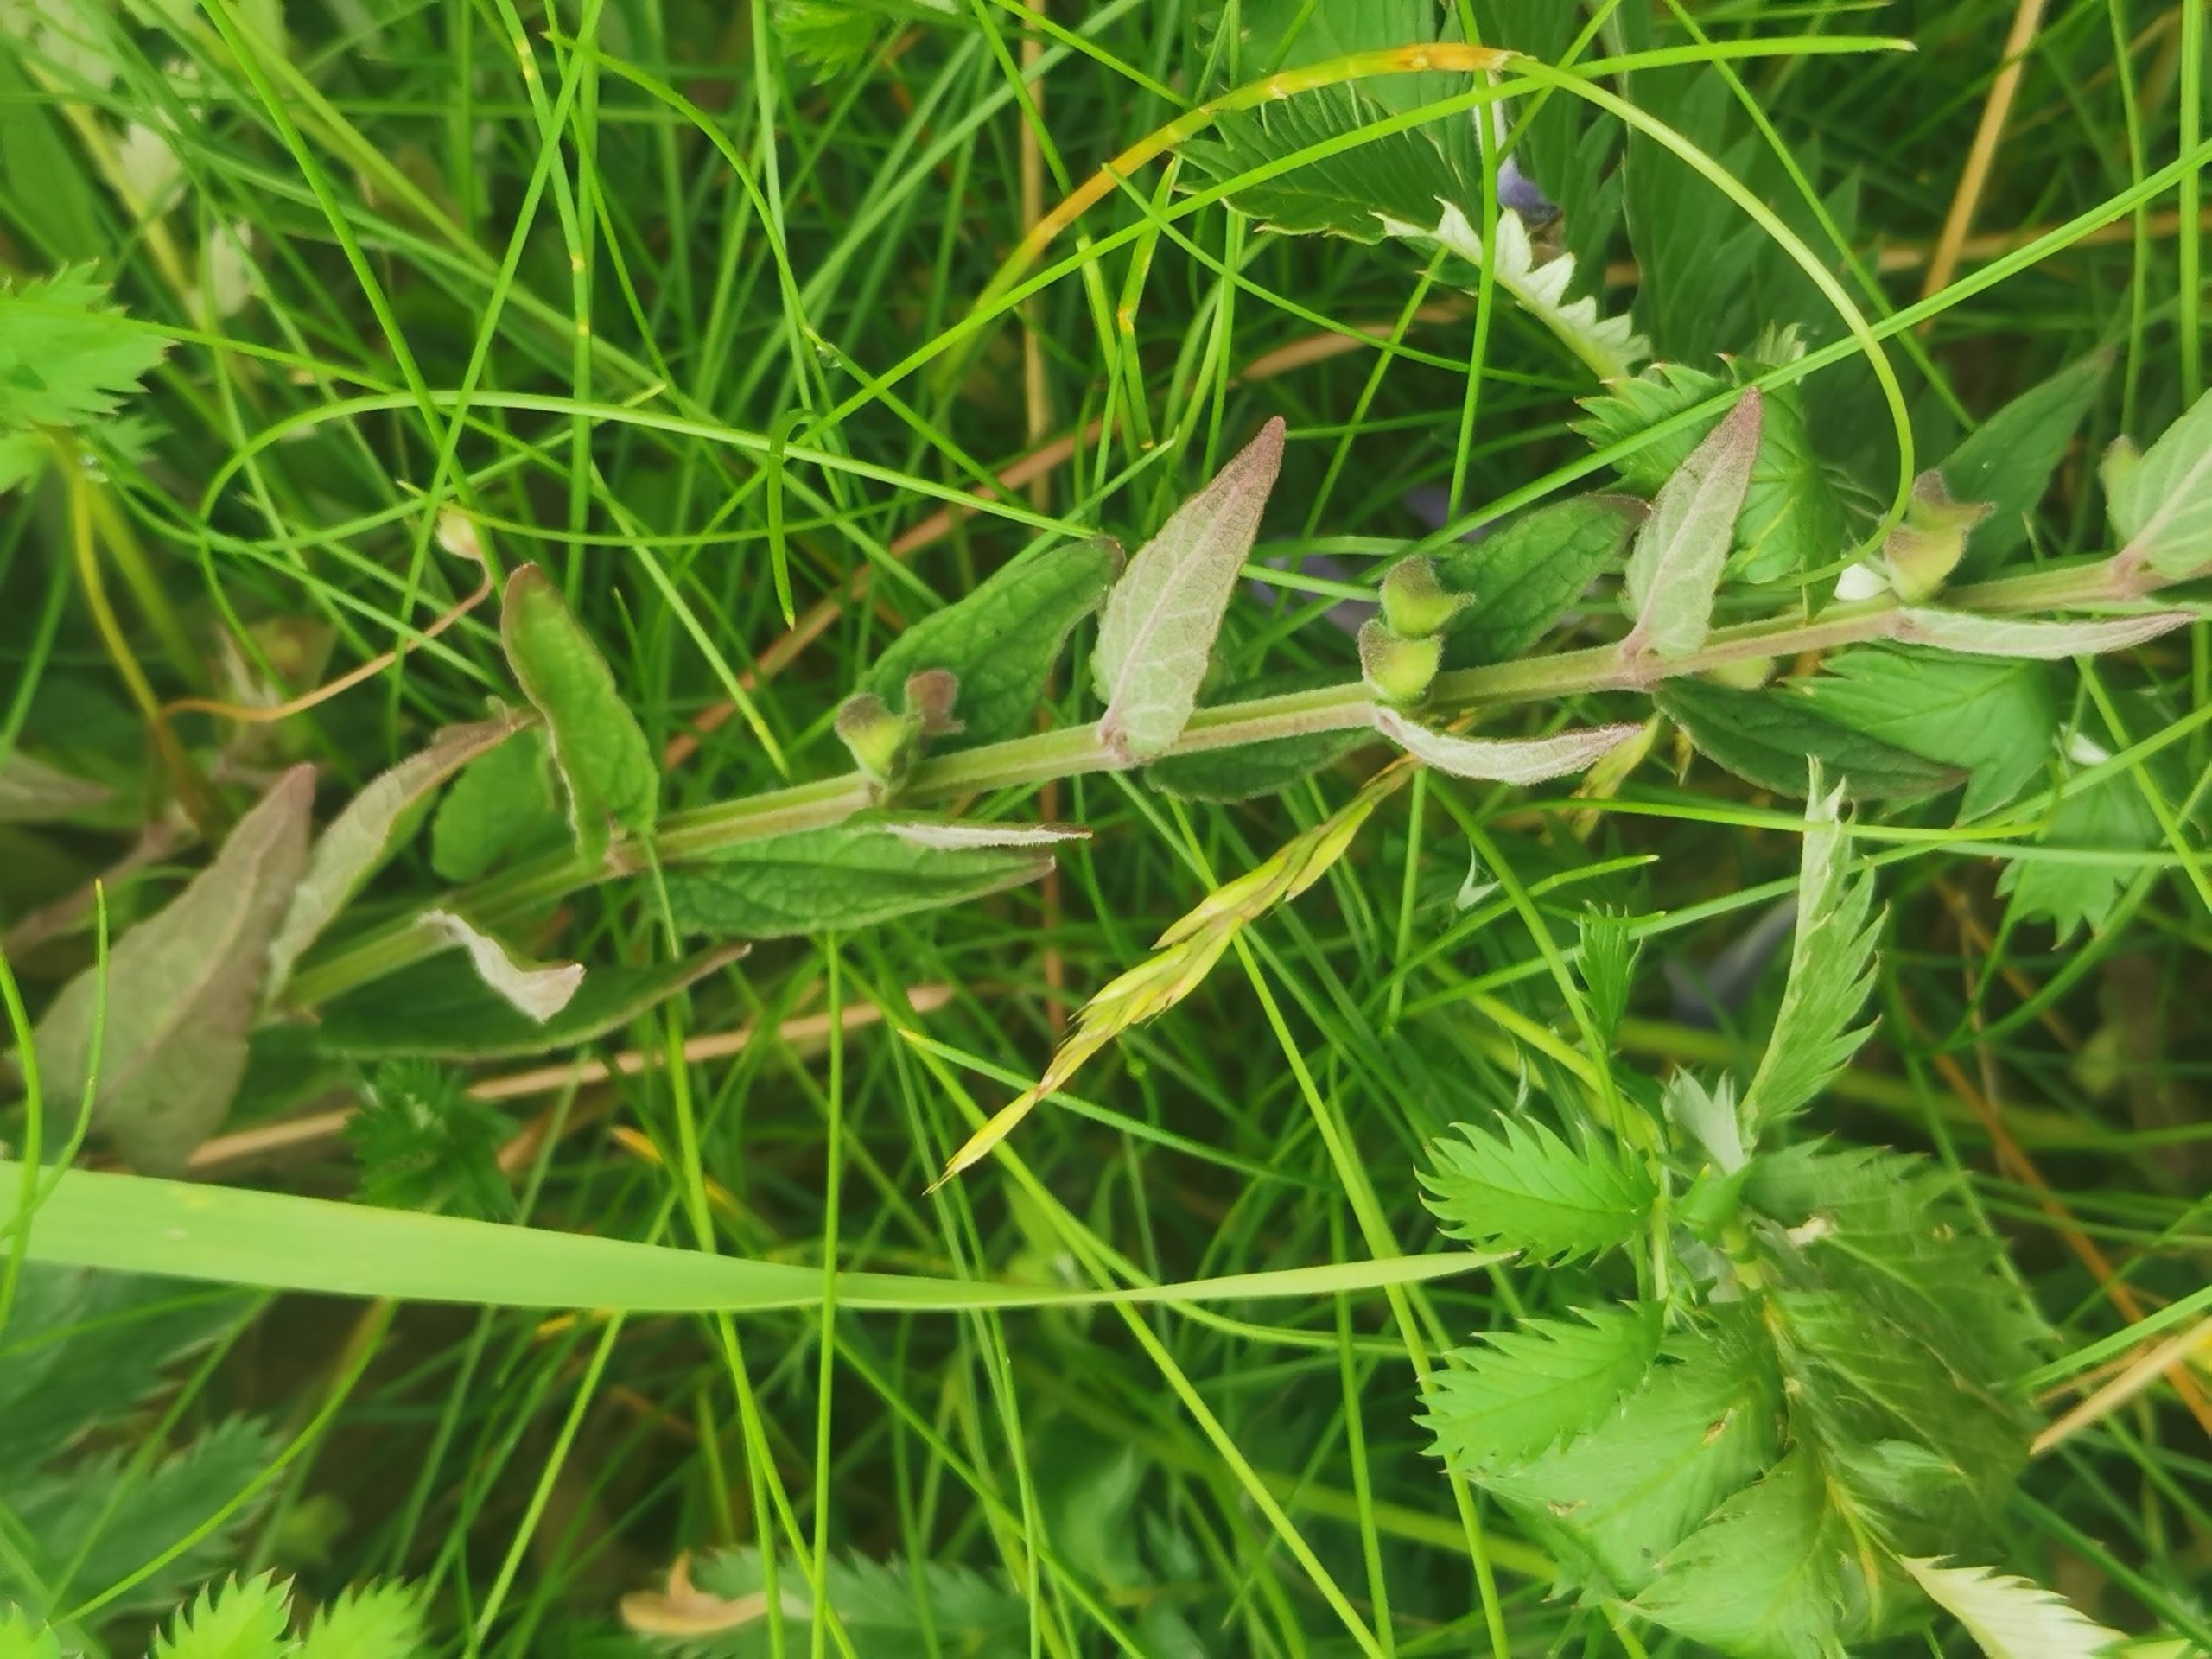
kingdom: Plantae
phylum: Tracheophyta
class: Magnoliopsida
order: Lamiales
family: Lamiaceae
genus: Scutellaria
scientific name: Scutellaria galericulata
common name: Almindelig skjolddrager
